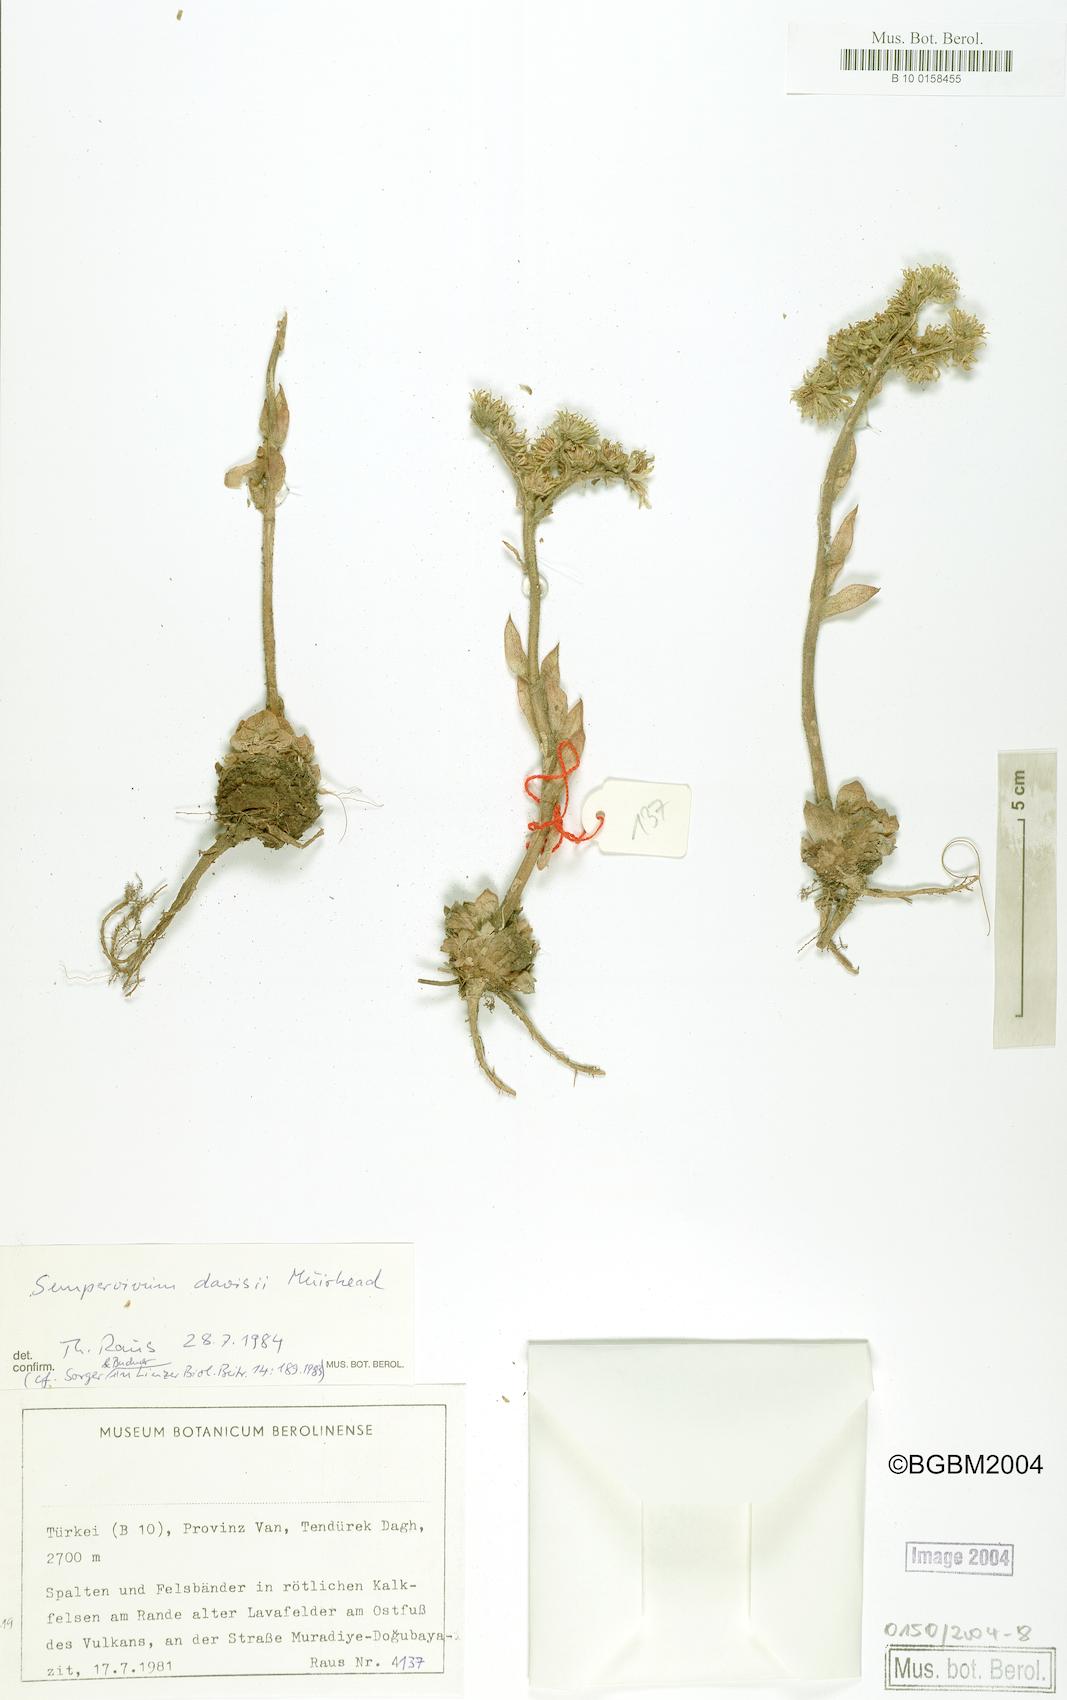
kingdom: Plantae
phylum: Tracheophyta
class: Magnoliopsida
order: Saxifragales
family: Crassulaceae
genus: Sempervivum
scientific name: Sempervivum davisii
